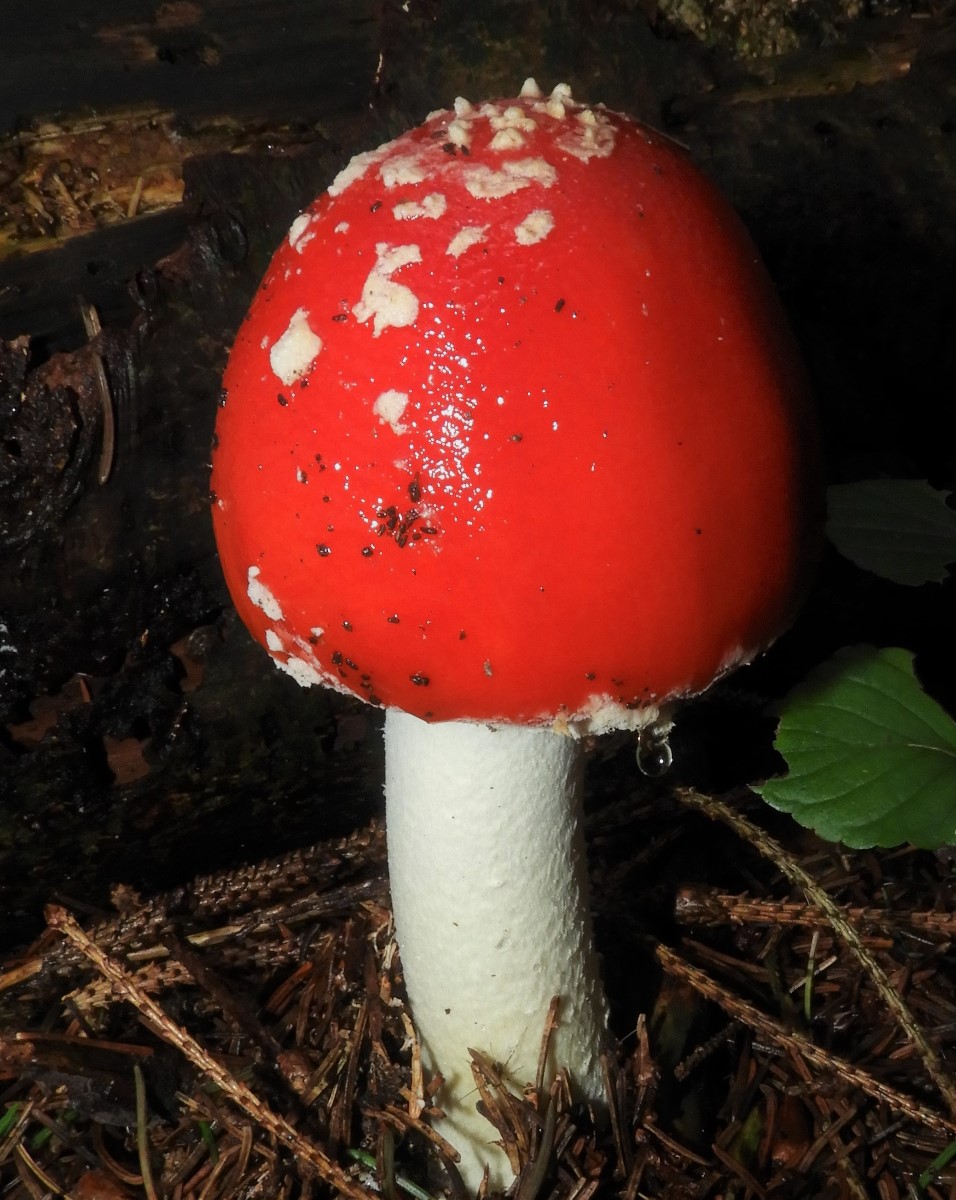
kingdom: Fungi
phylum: Basidiomycota
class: Agaricomycetes
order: Agaricales
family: Amanitaceae
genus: Amanita
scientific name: Amanita muscaria
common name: rød fluesvamp
